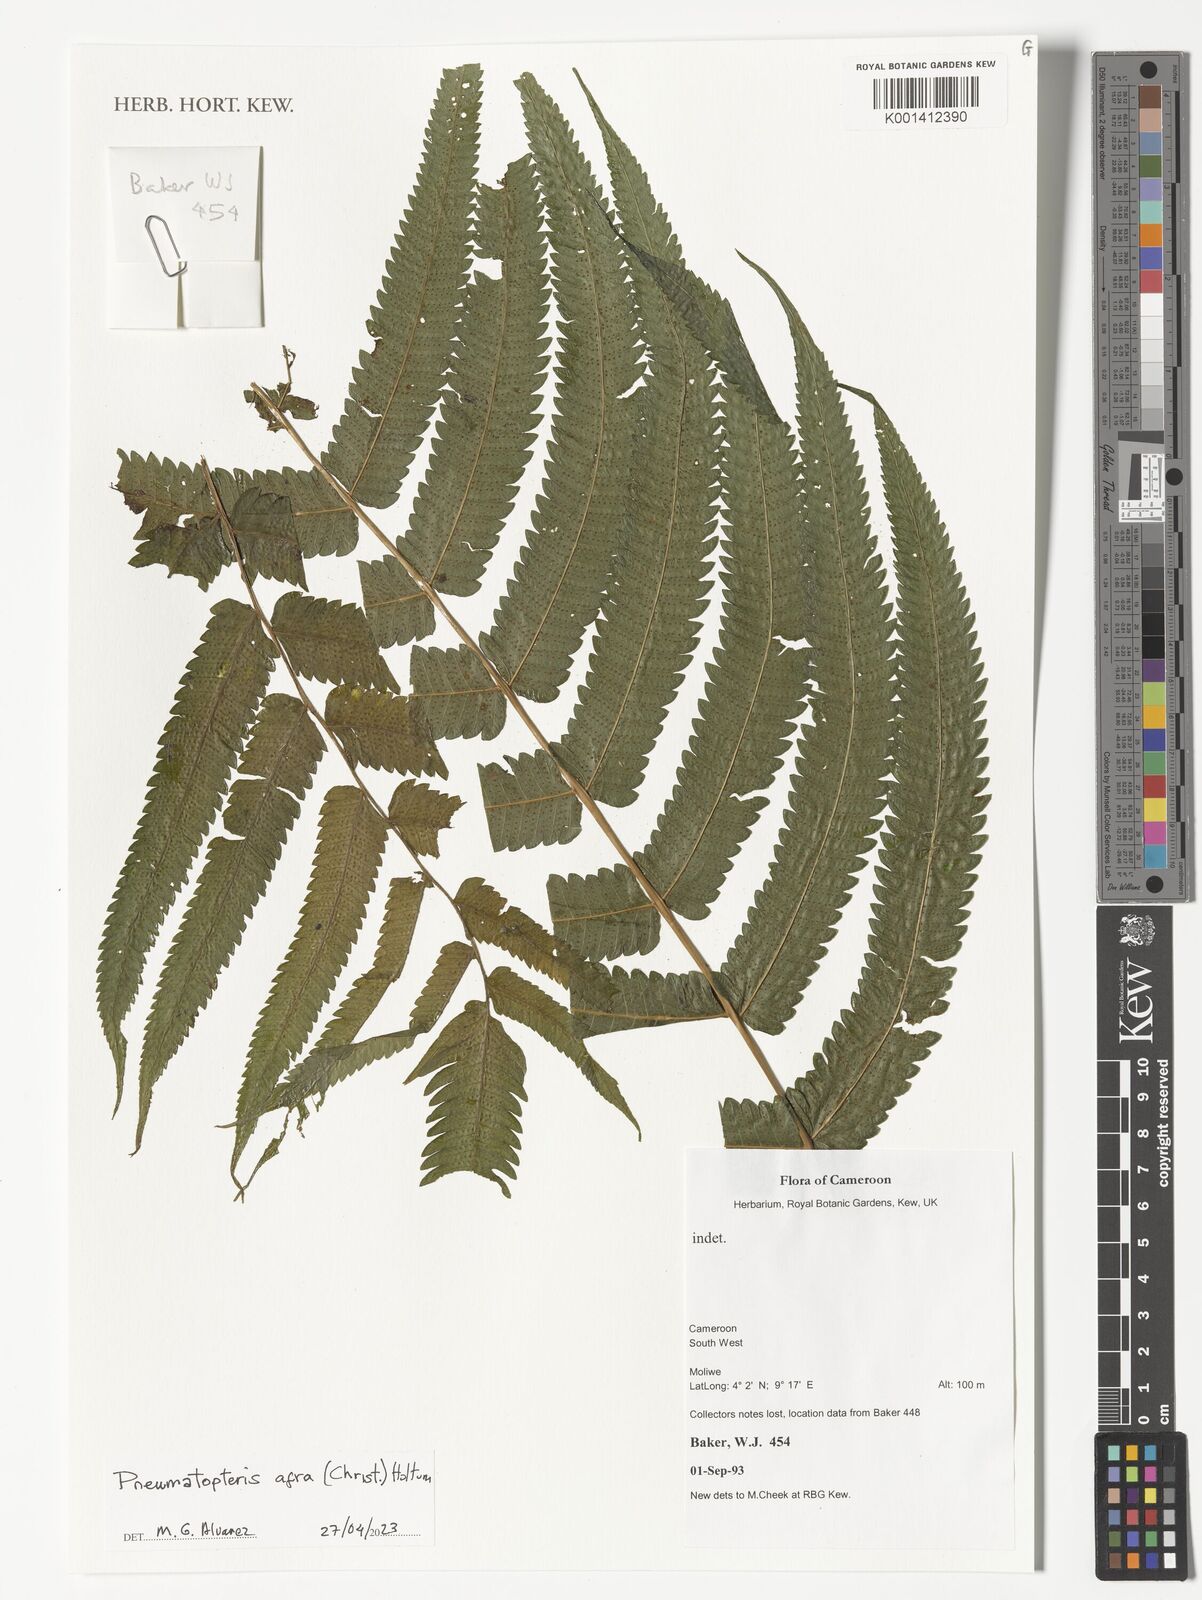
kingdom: Plantae
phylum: Tracheophyta
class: Polypodiopsida
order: Polypodiales
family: Thelypteridaceae
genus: Abacopteris
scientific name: Abacopteris afra
